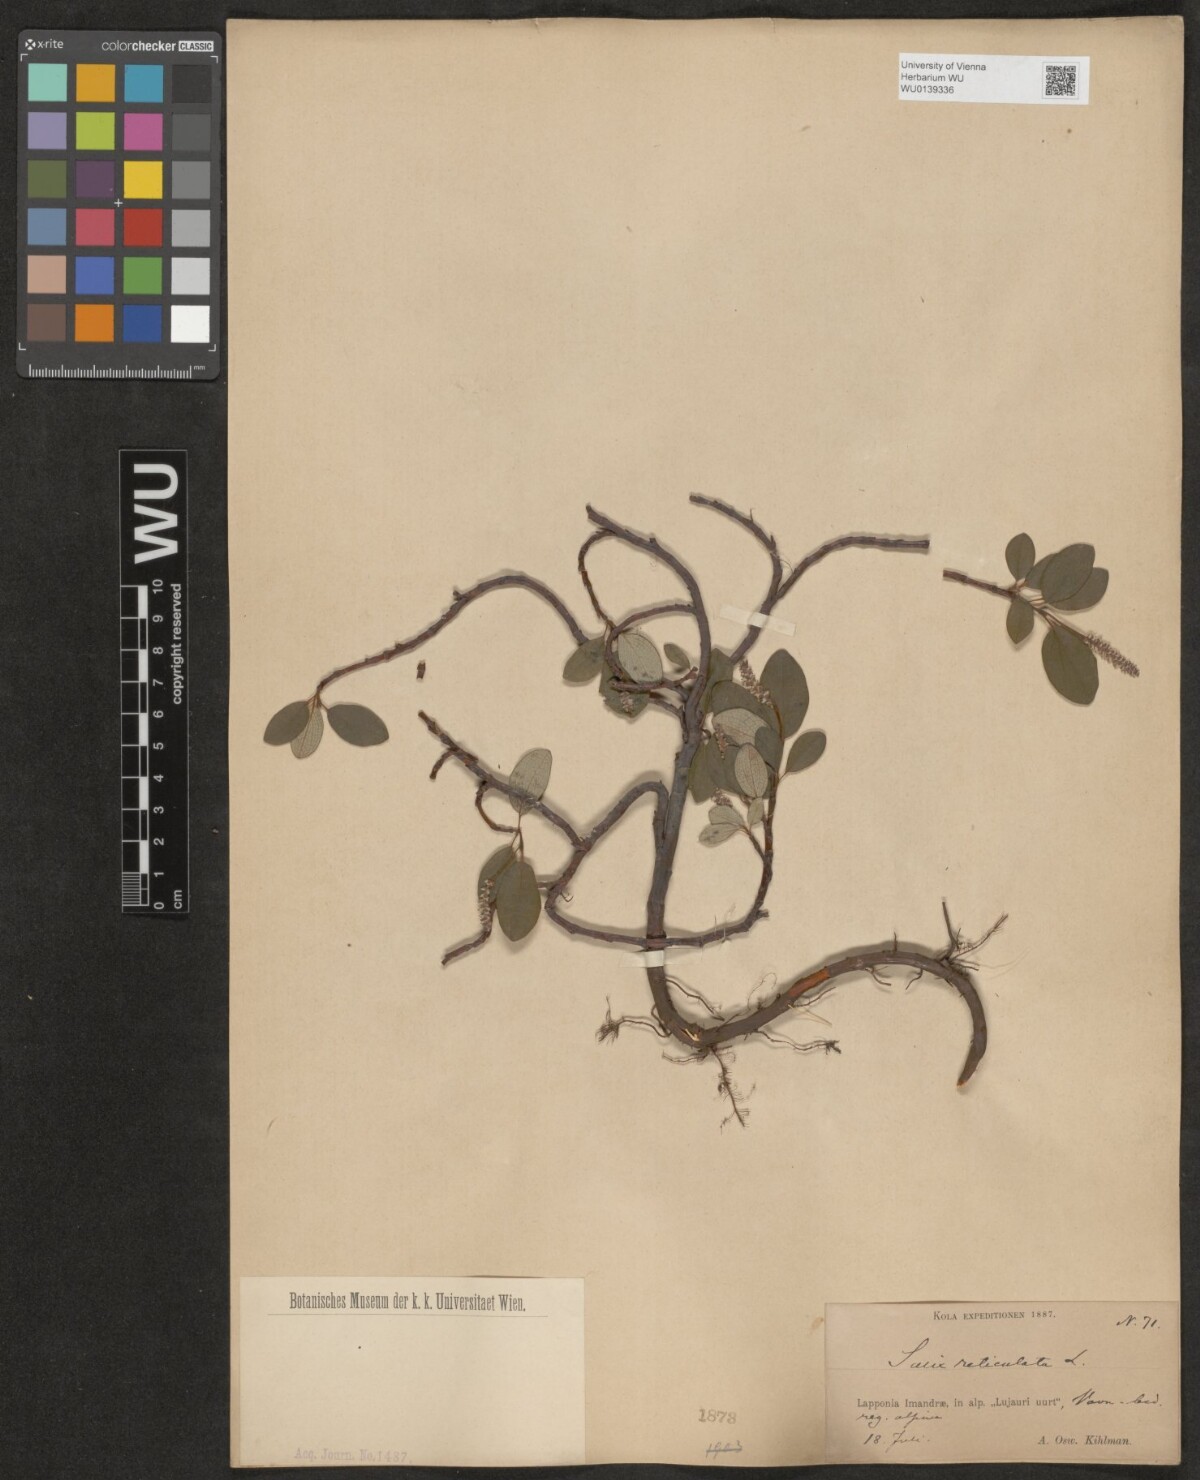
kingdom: Plantae
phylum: Tracheophyta
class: Magnoliopsida
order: Malpighiales
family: Salicaceae
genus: Salix
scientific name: Salix reticulata
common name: Net-leaved willow
